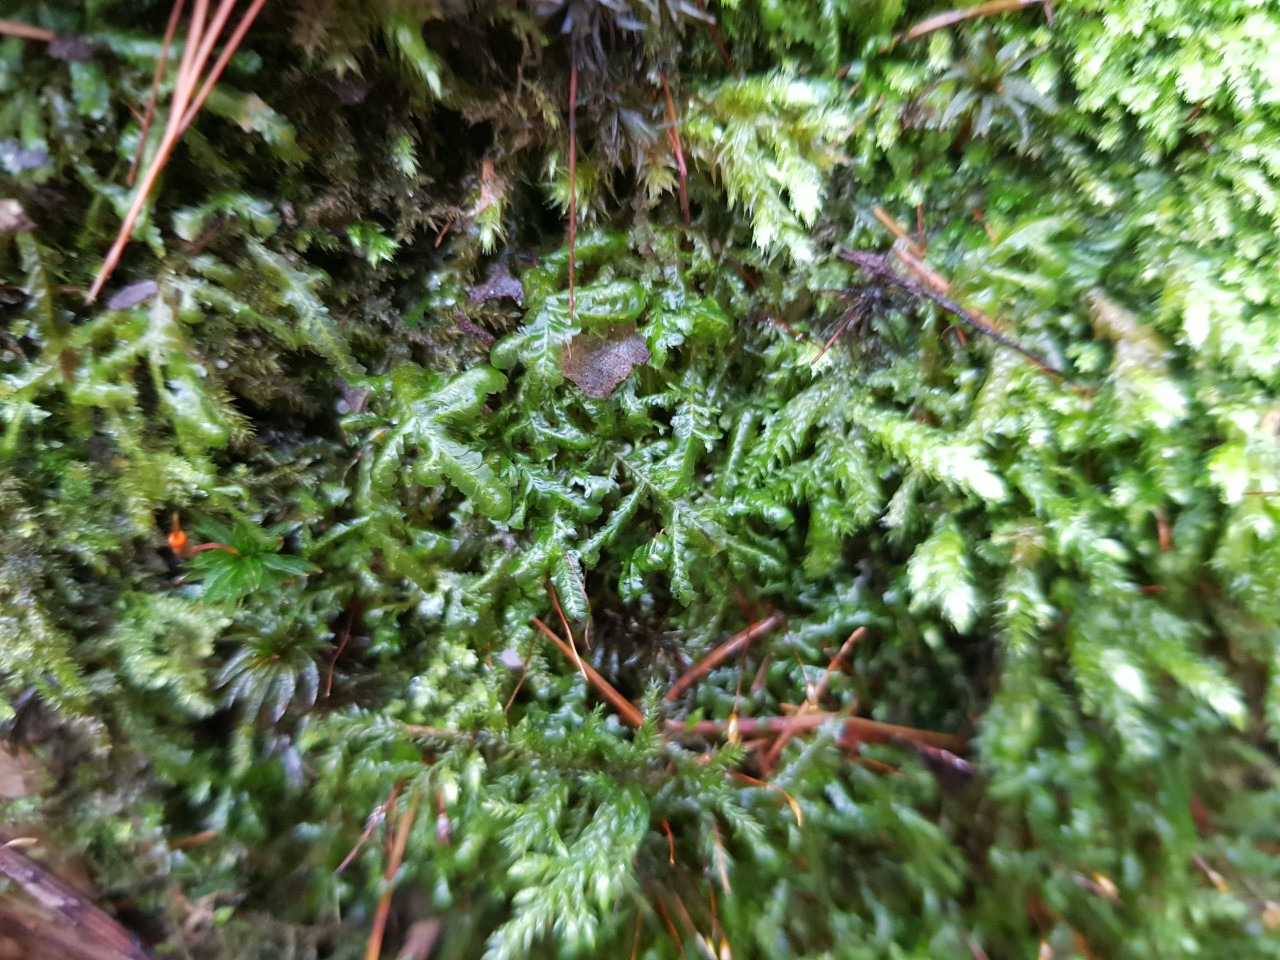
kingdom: Plantae
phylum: Bryophyta
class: Bryopsida
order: Hypnales
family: Neckeraceae
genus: Homalia
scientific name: Homalia trichomanoides
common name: Skov-tungemos
